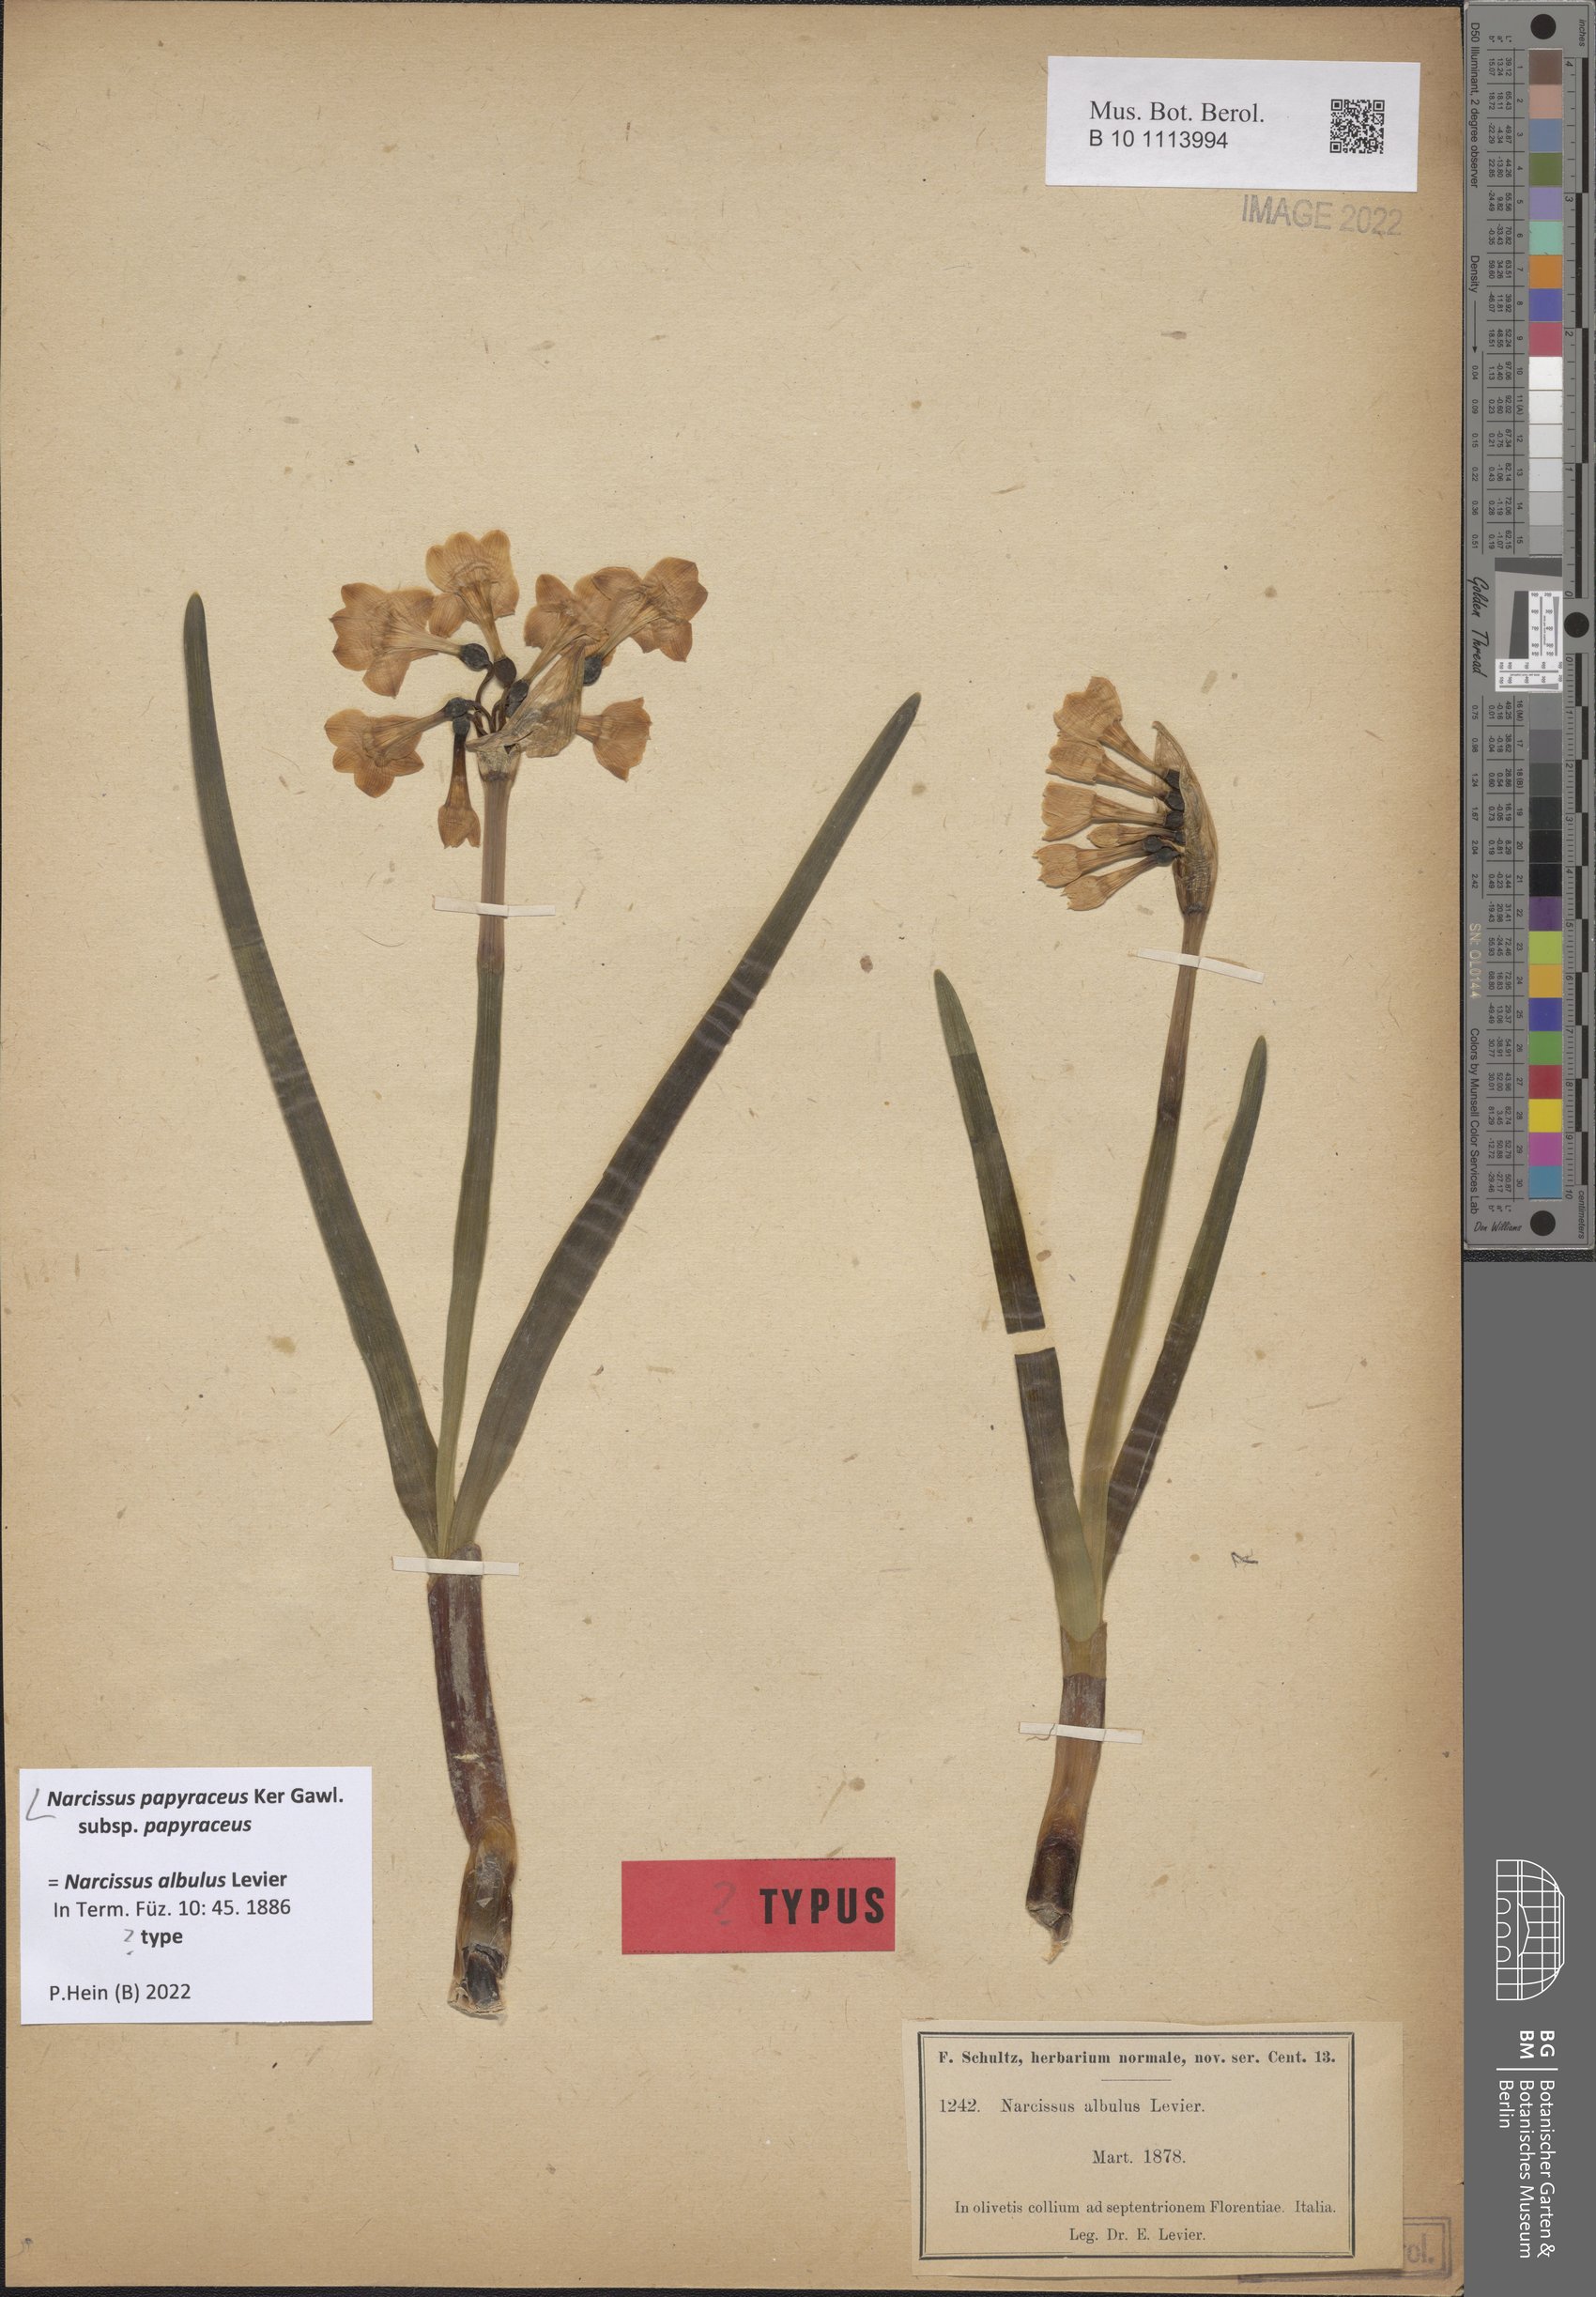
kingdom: Plantae
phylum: Tracheophyta
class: Liliopsida
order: Asparagales
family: Amaryllidaceae
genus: Narcissus
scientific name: Narcissus papyraceus
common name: Paper-white daffodil
